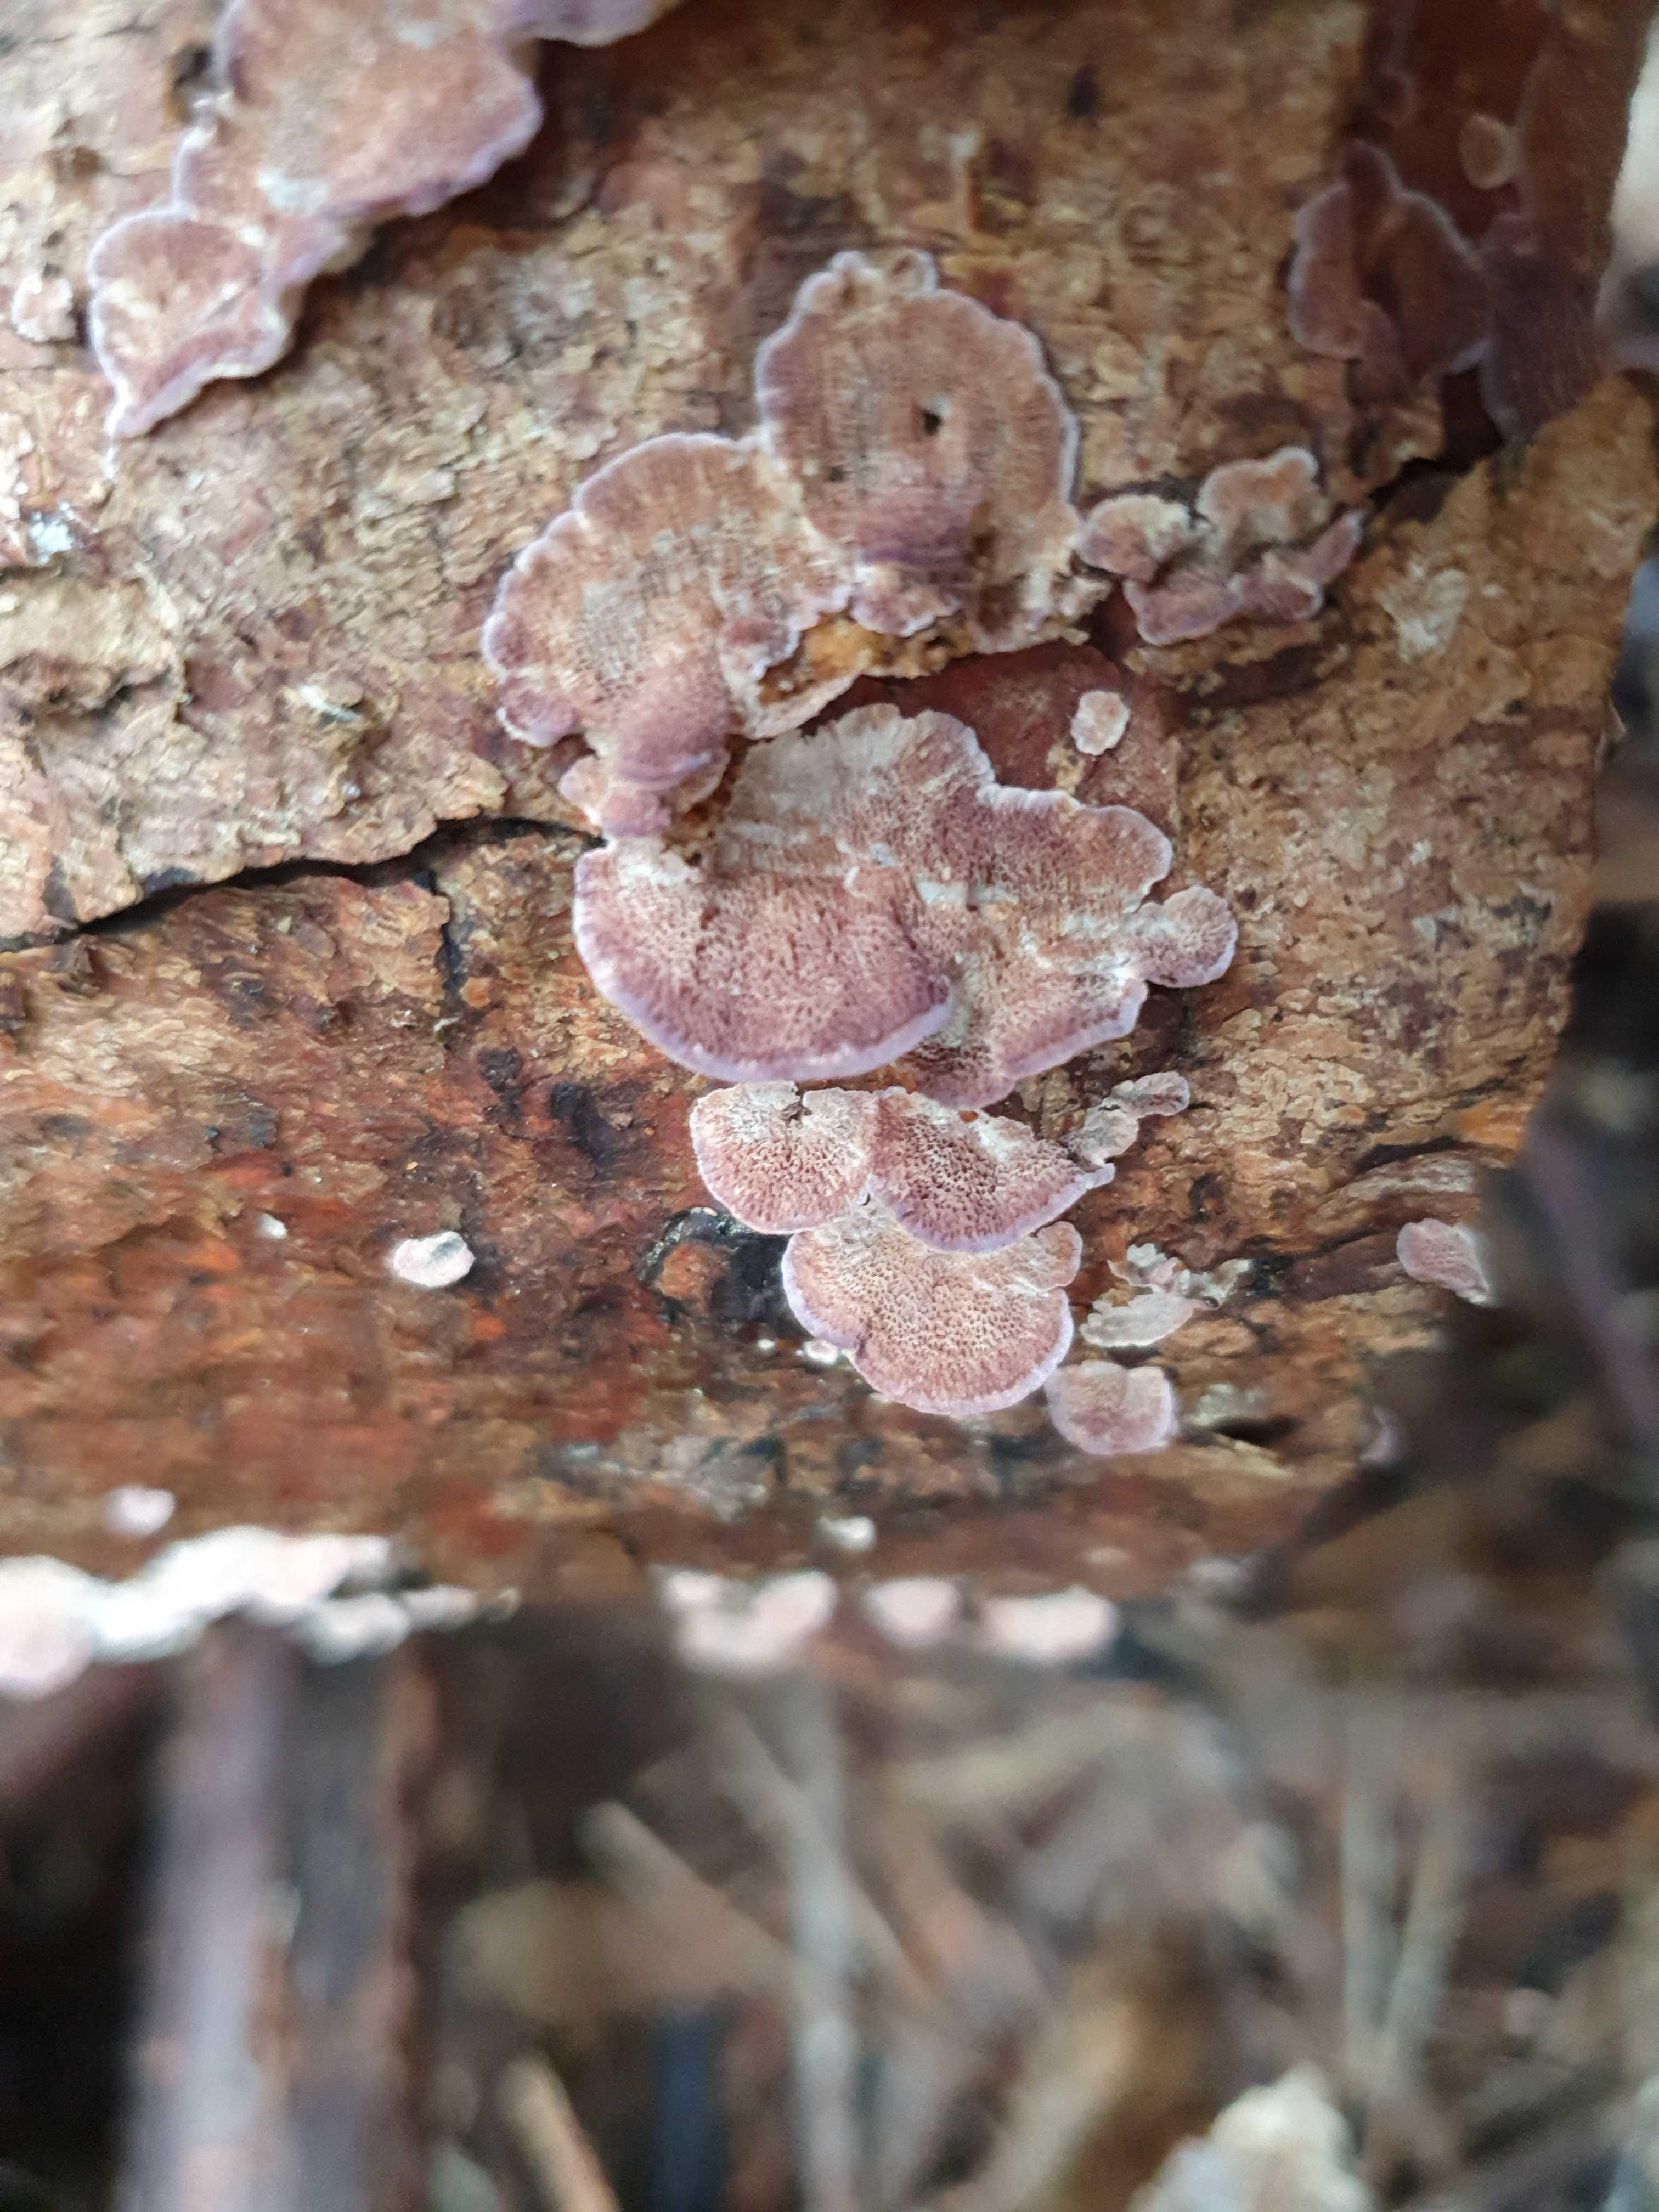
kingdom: Fungi
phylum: Basidiomycota
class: Agaricomycetes
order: Hymenochaetales
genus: Trichaptum
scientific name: Trichaptum abietinum
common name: almindelig violporesvamp
